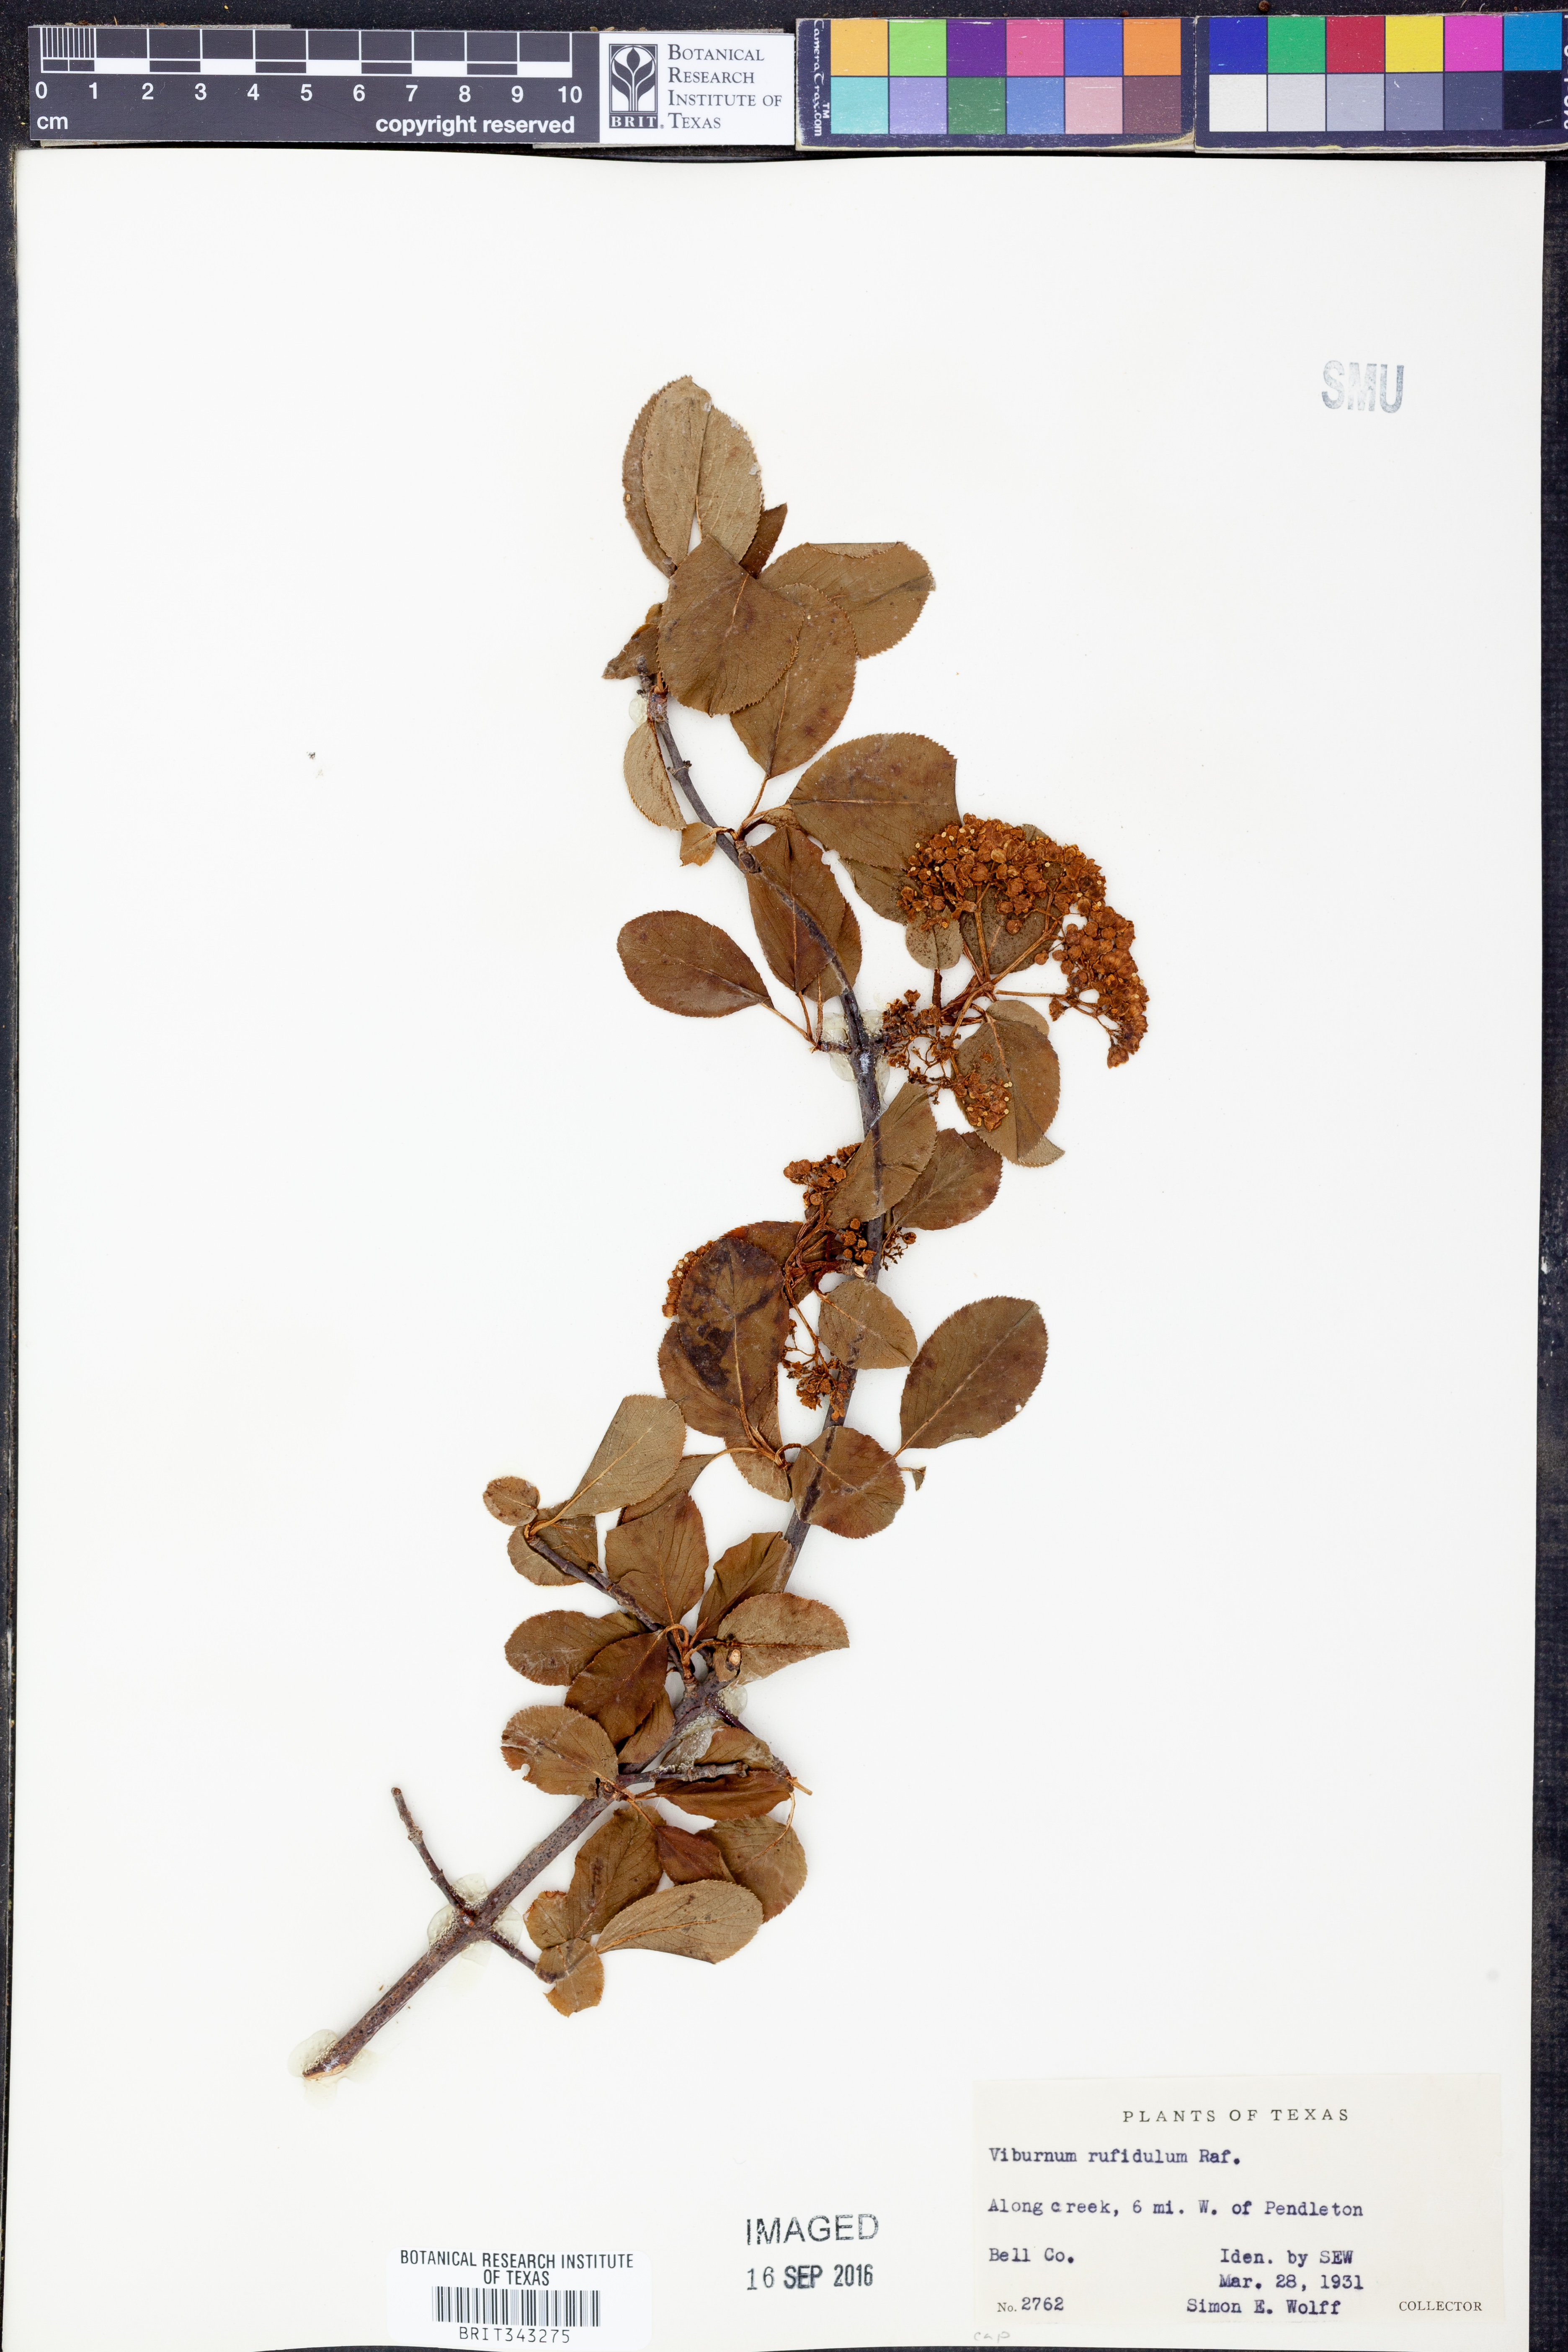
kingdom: Plantae
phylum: Tracheophyta
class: Magnoliopsida
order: Dipsacales
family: Viburnaceae
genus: Viburnum
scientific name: Viburnum rufidulum
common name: Blue haw
